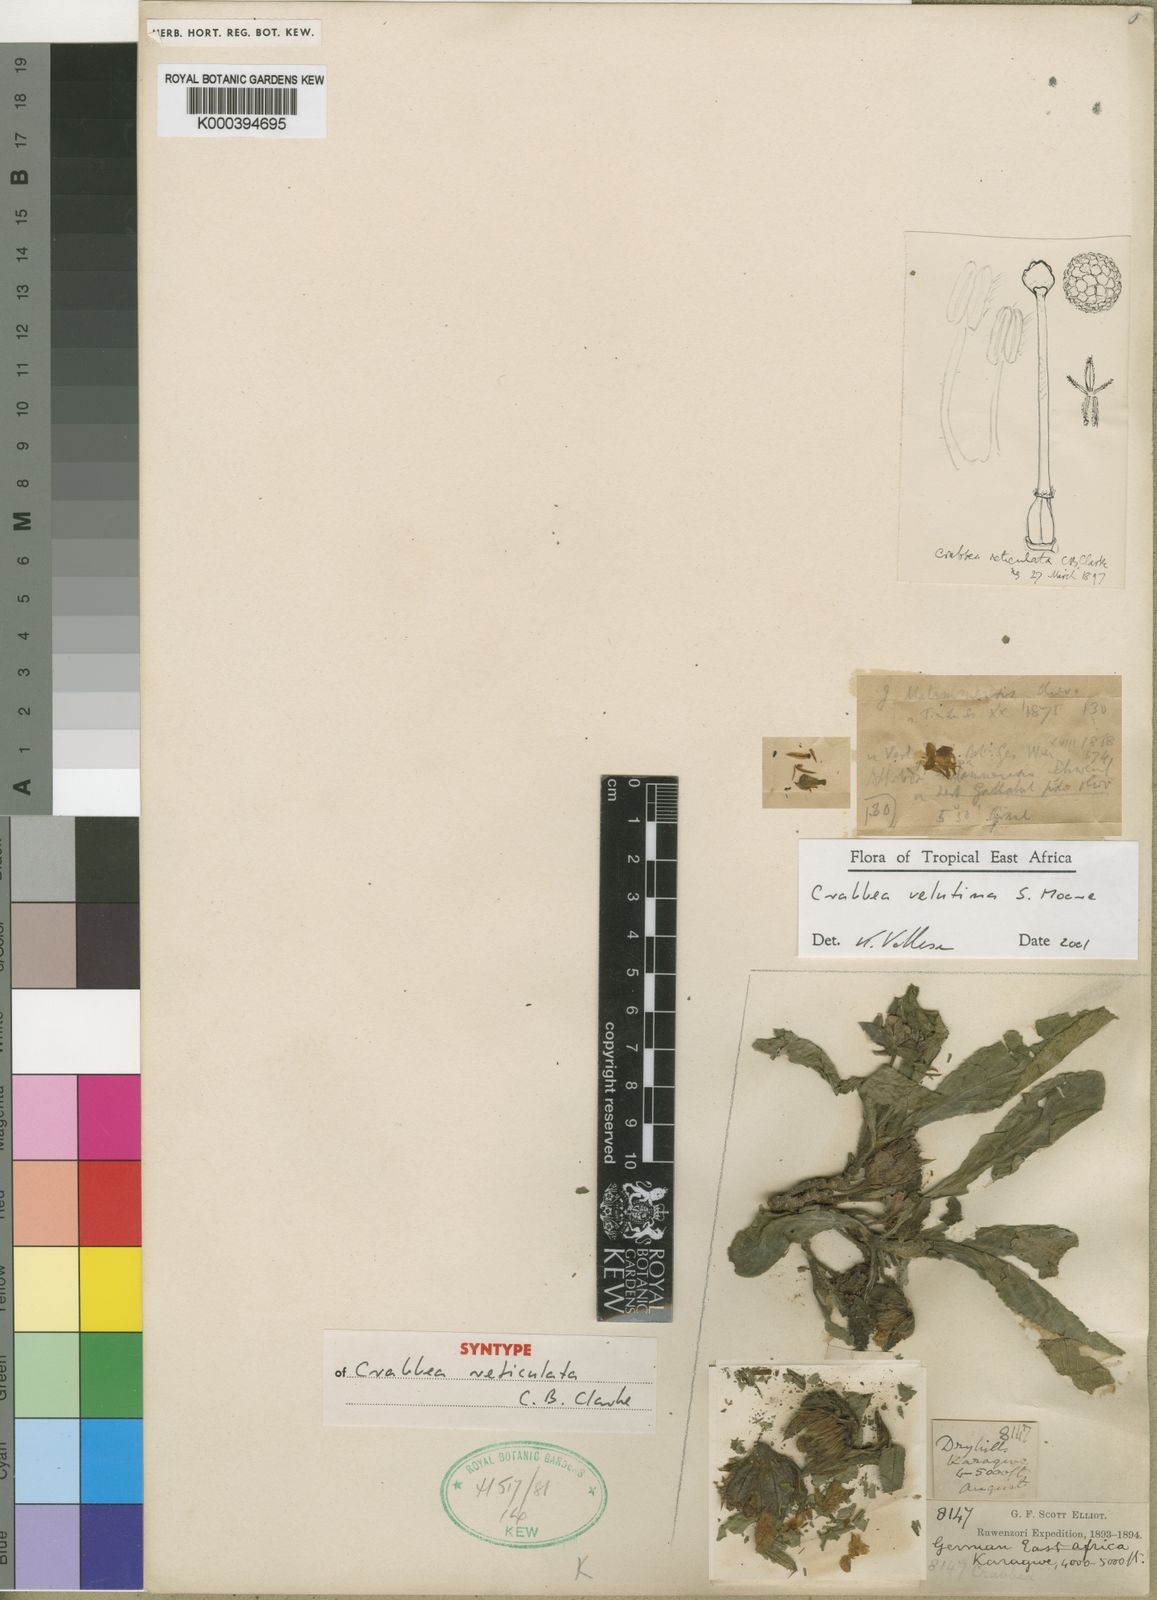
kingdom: Plantae
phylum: Tracheophyta
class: Magnoliopsida
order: Lamiales
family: Acanthaceae
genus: Crabbea
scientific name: Crabbea velutina
